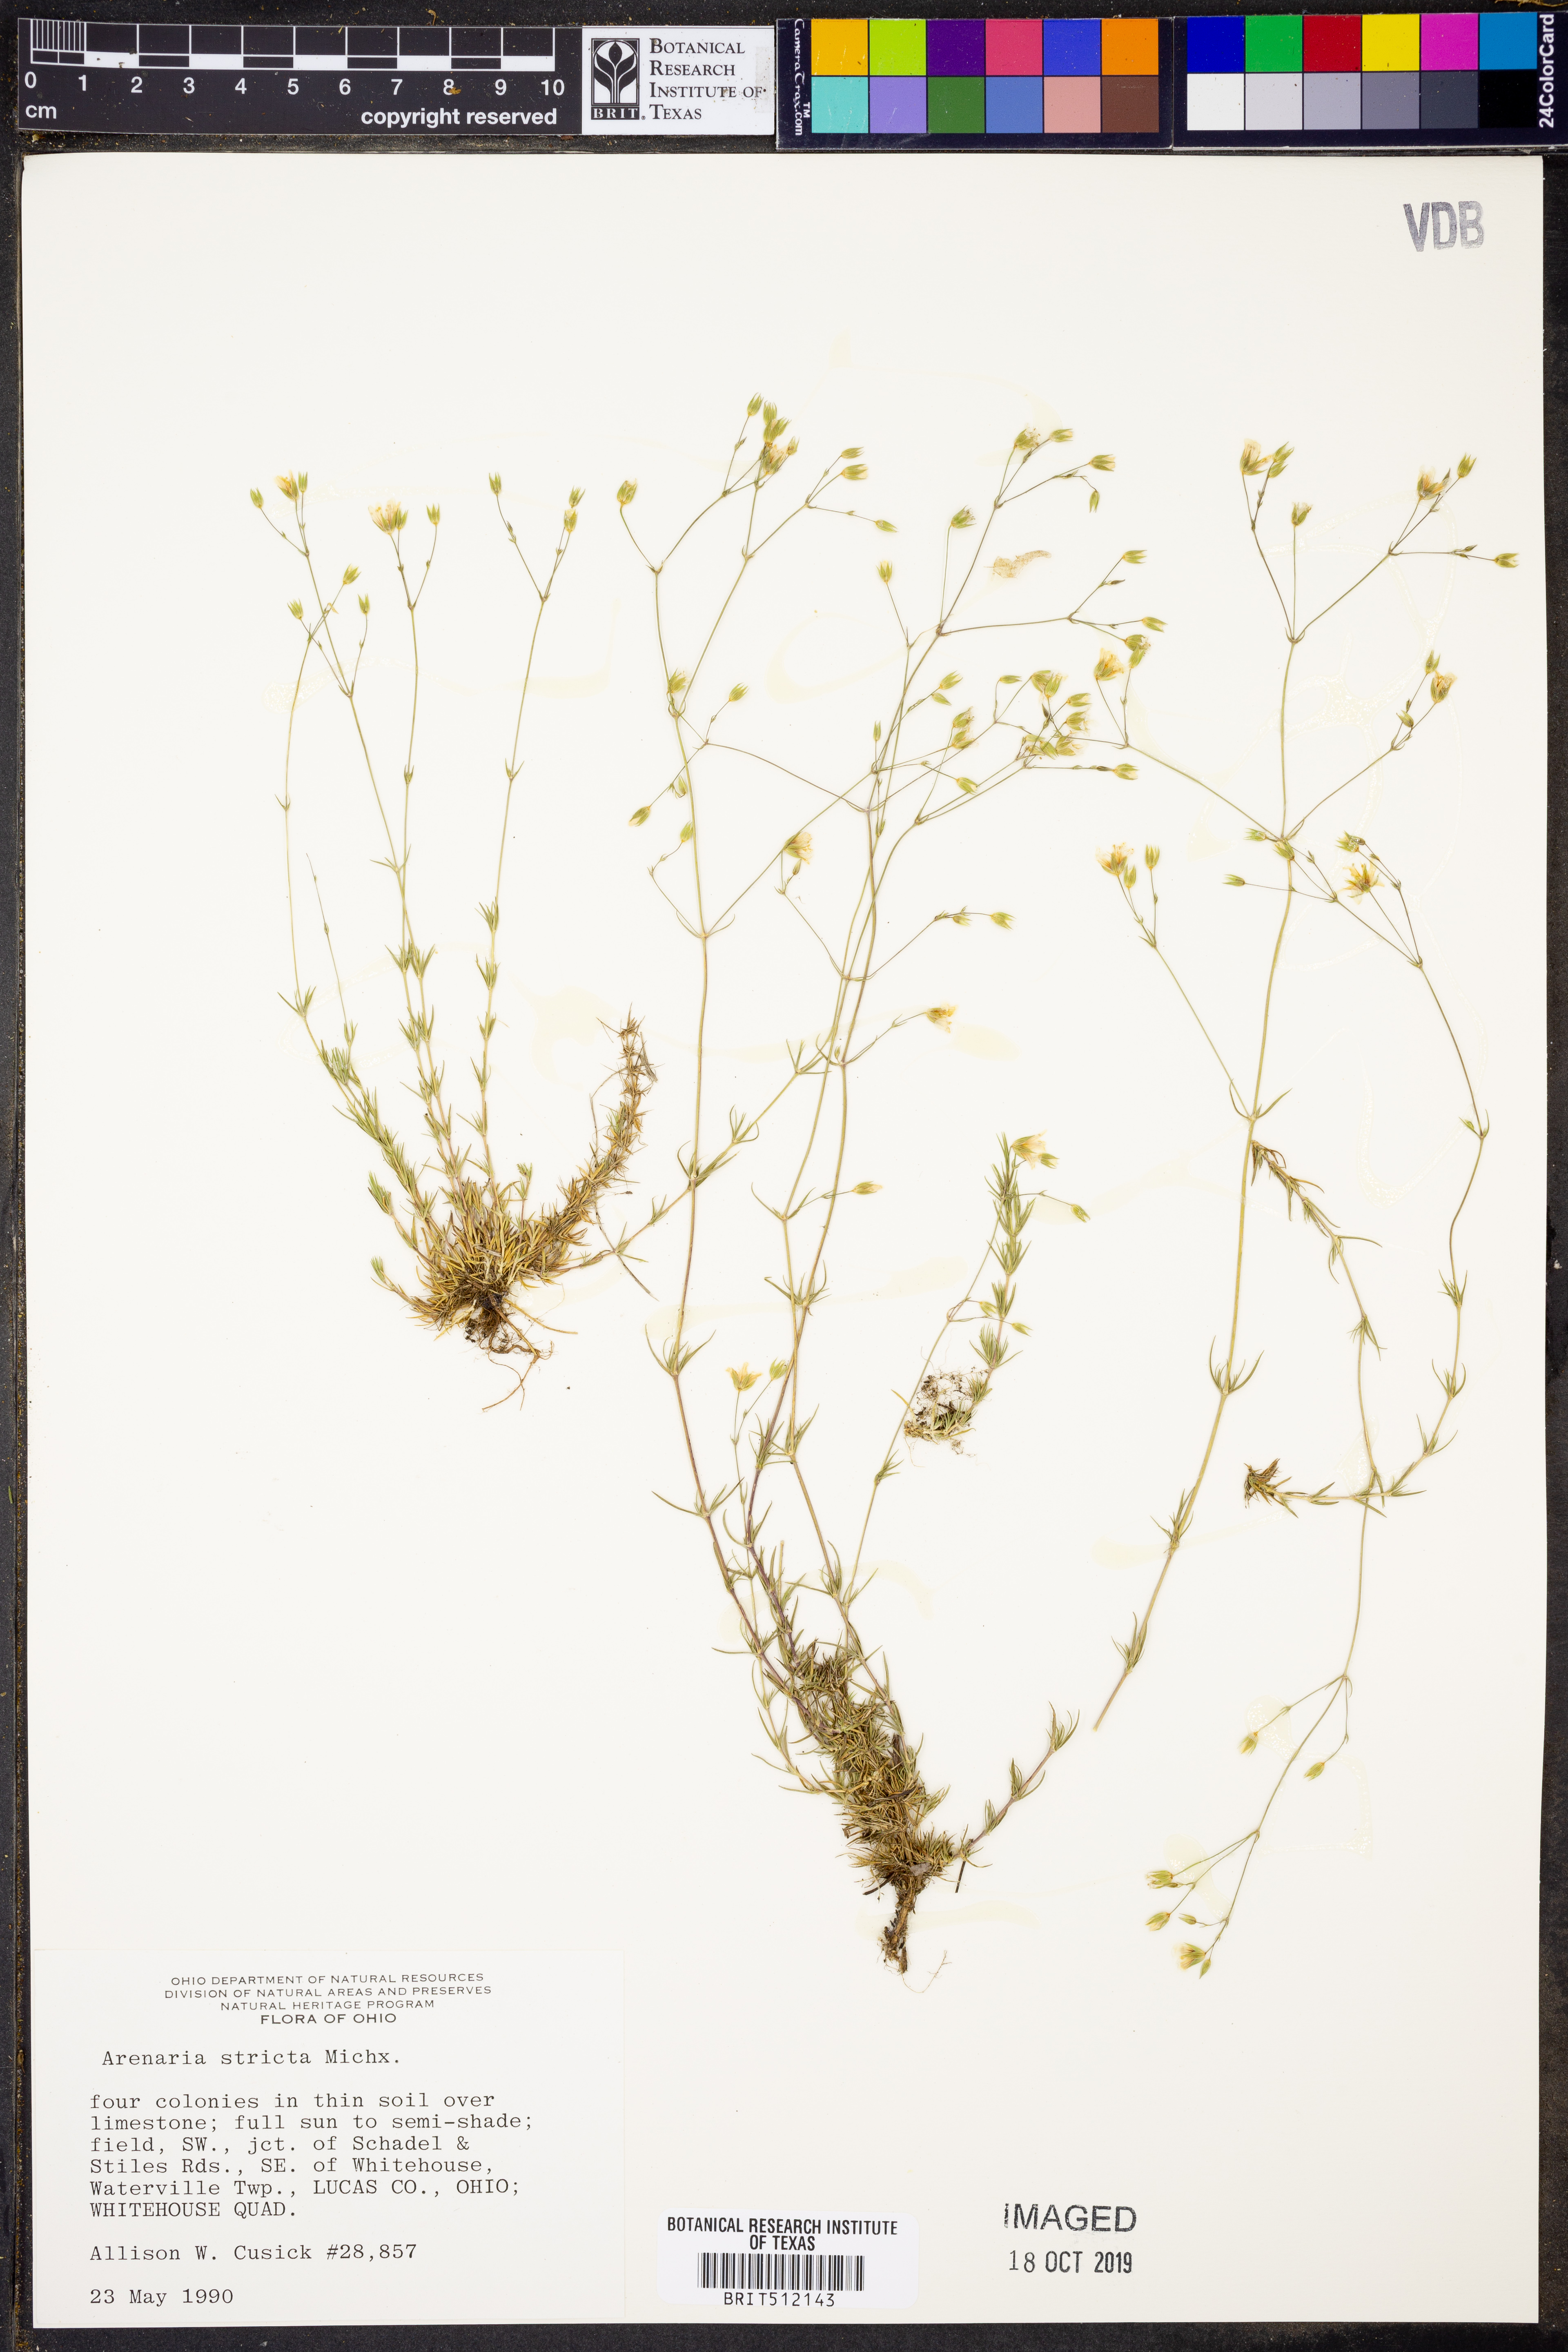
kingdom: Plantae
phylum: Tracheophyta
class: Magnoliopsida
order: Caryophyllales
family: Caryophyllaceae
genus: Sabulina
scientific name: Sabulina michauxii
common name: Michaux's stitchwort
